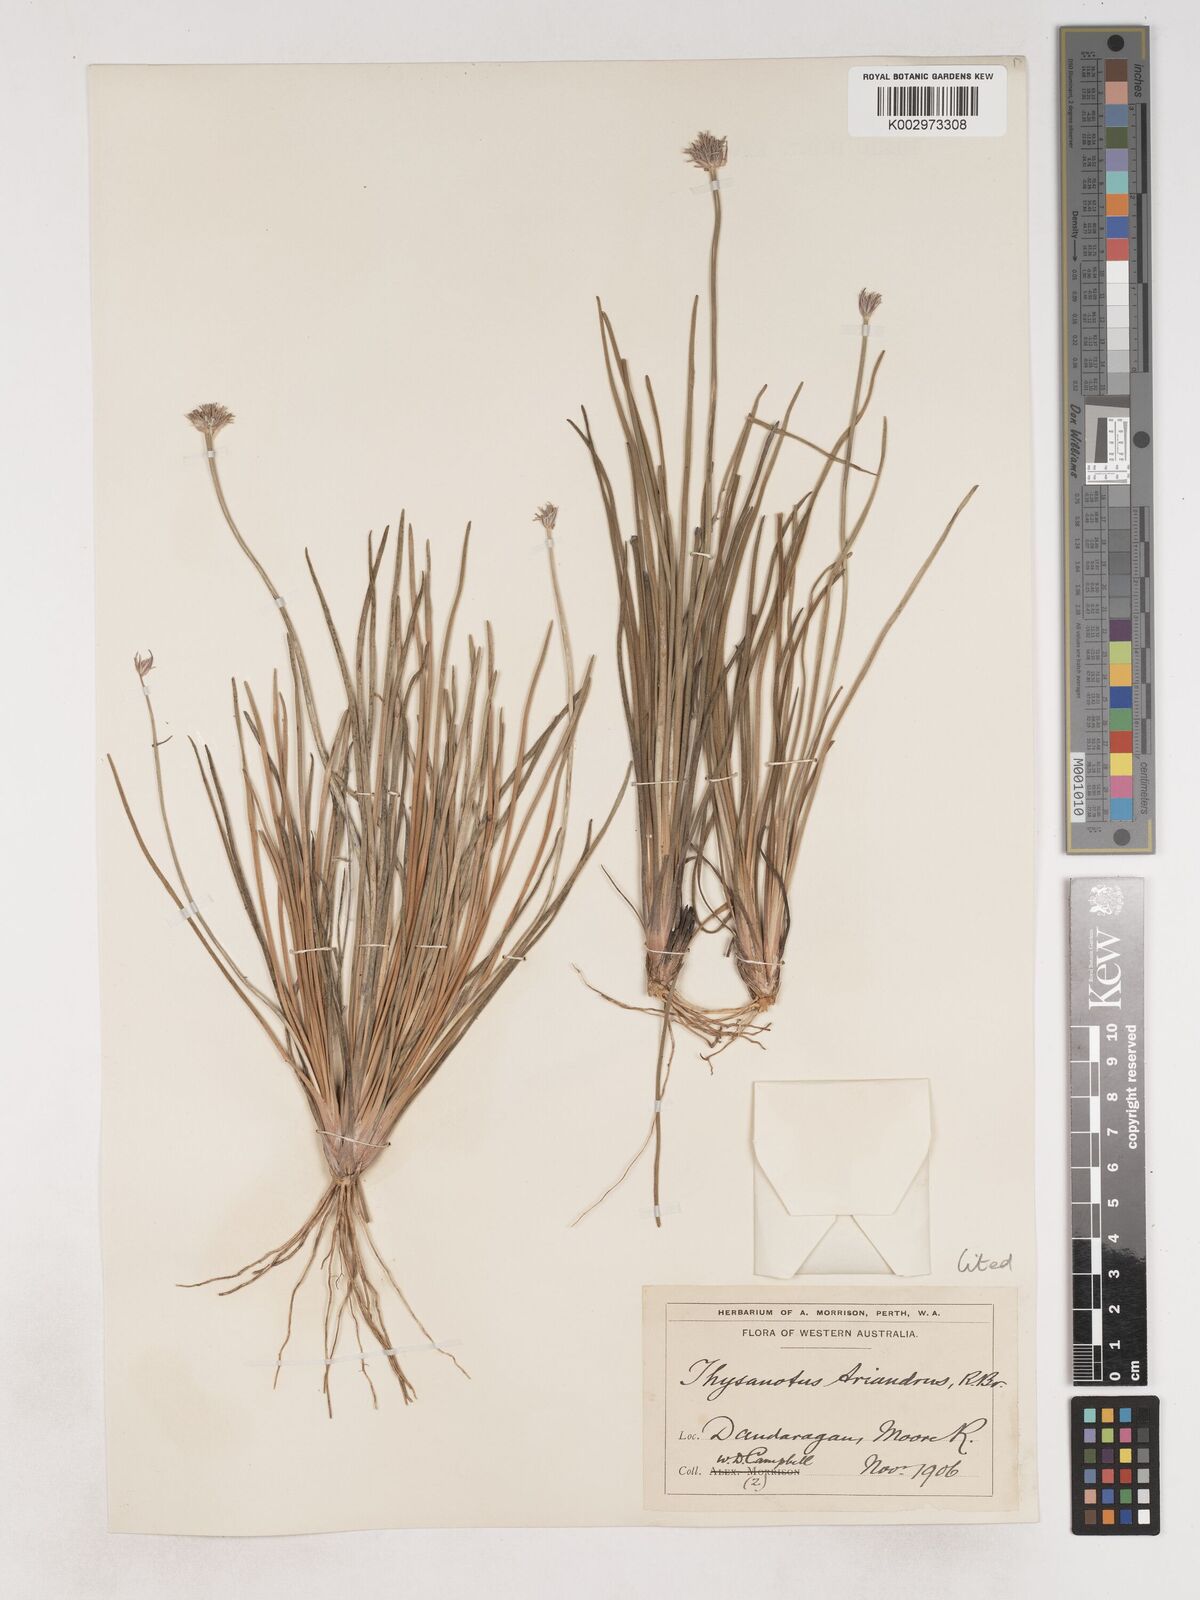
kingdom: Plantae
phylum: Tracheophyta
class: Liliopsida
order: Asparagales
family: Asparagaceae
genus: Thysanotus
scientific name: Thysanotus triandrus
